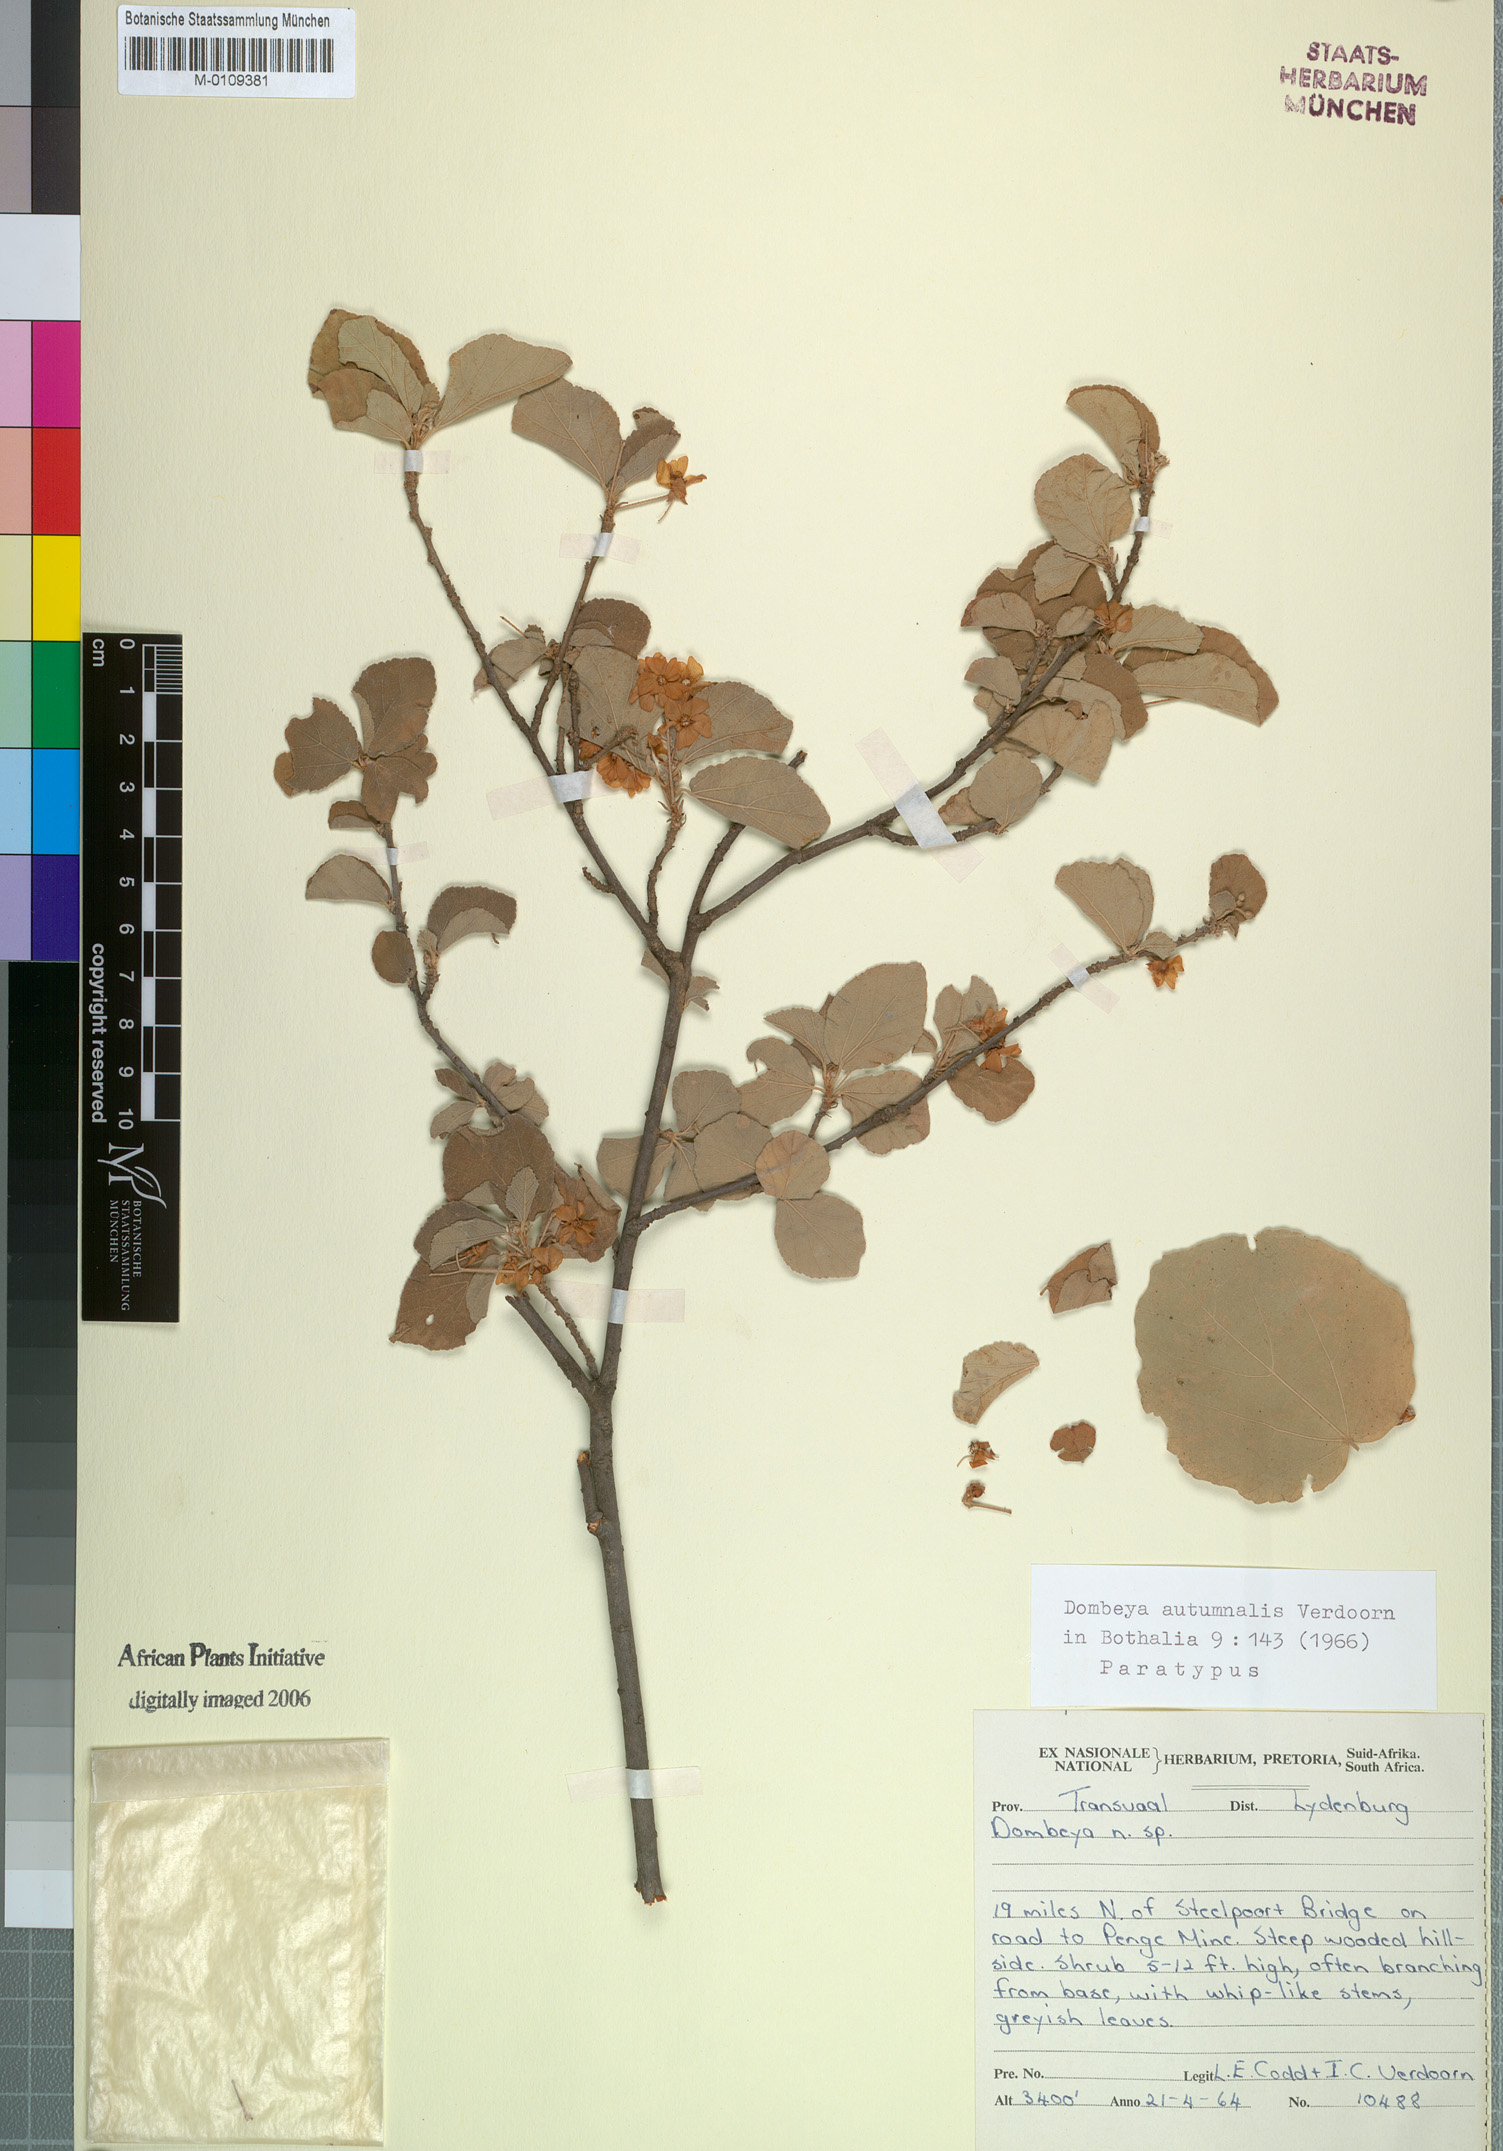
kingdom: Plantae
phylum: Tracheophyta
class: Magnoliopsida
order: Malvales
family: Malvaceae
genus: Dombeya
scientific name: Dombeya autumnalis
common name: Rock dombeya
